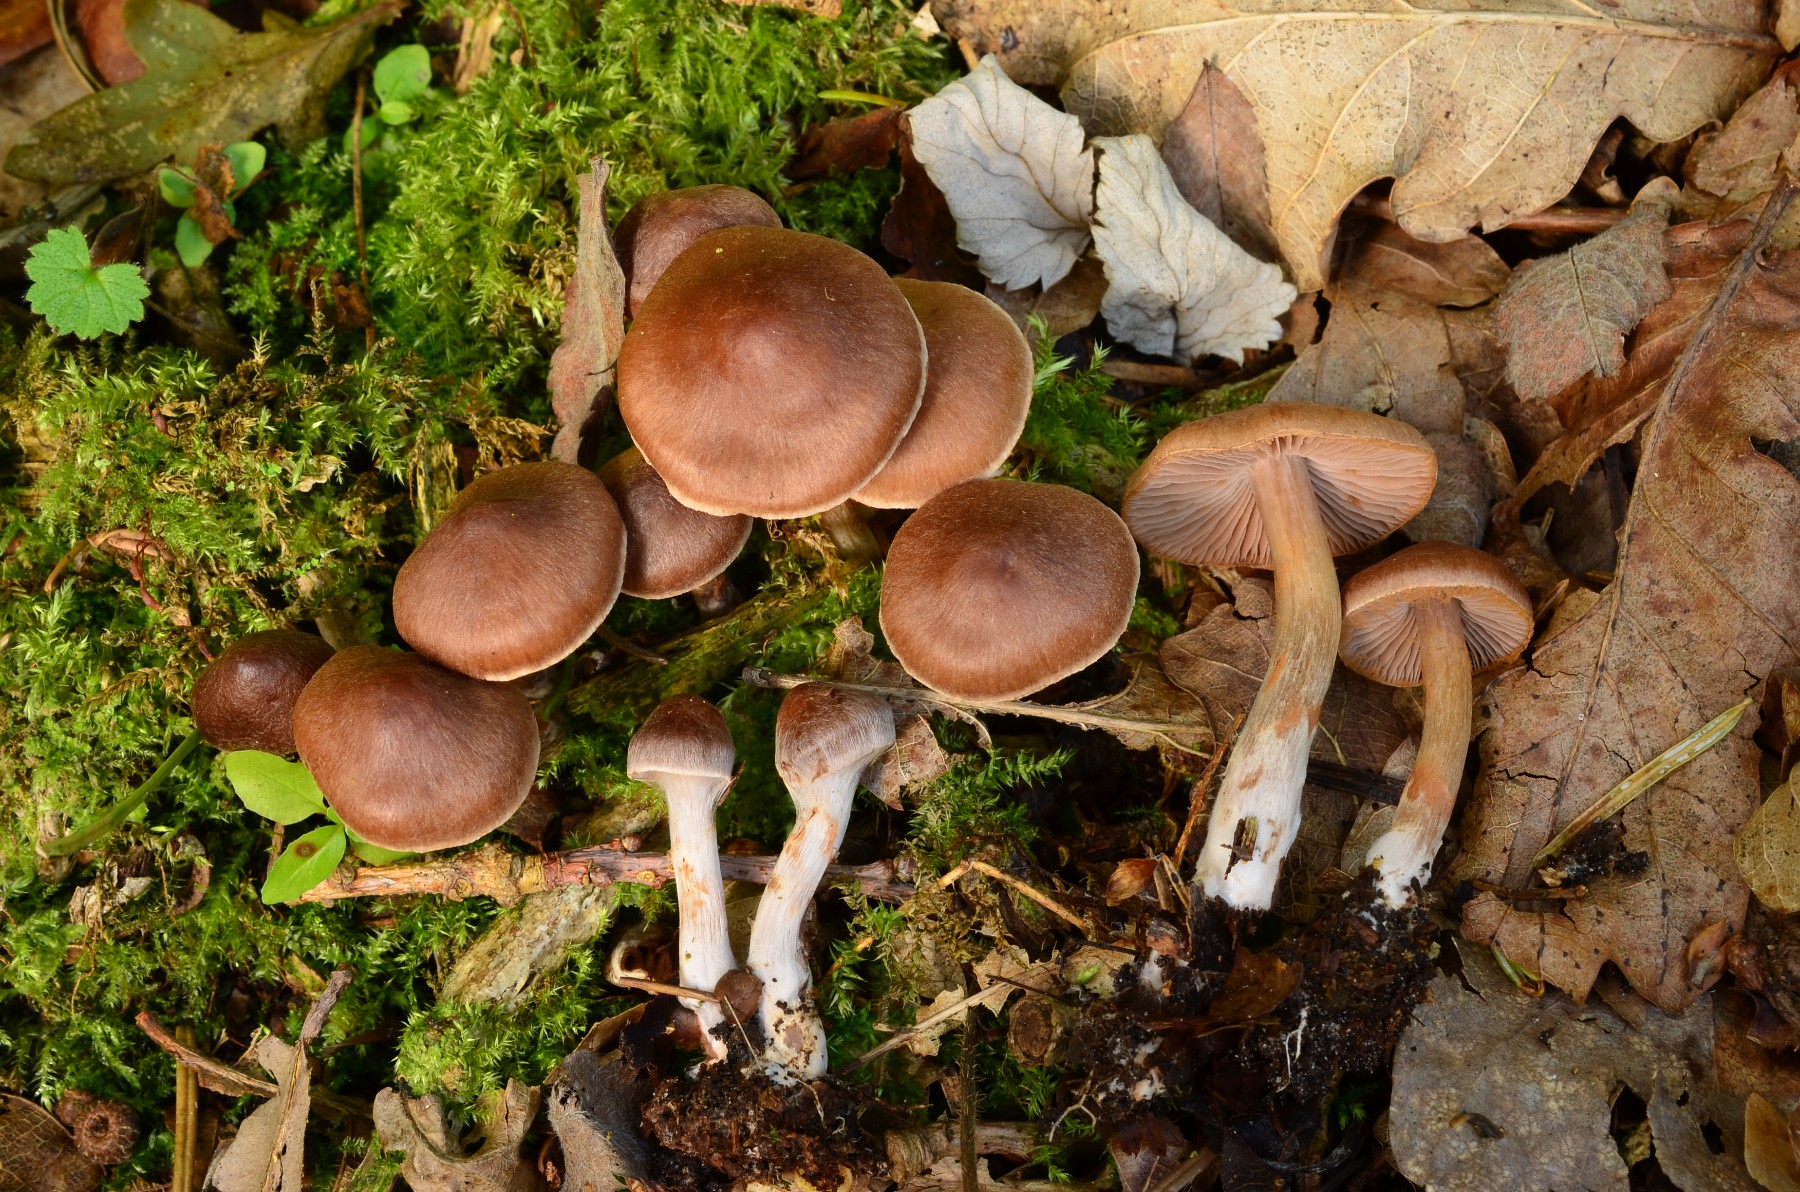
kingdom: Fungi
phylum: Basidiomycota
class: Agaricomycetes
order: Agaricales
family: Cortinariaceae
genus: Cortinarius
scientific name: Cortinarius praestigiosus
